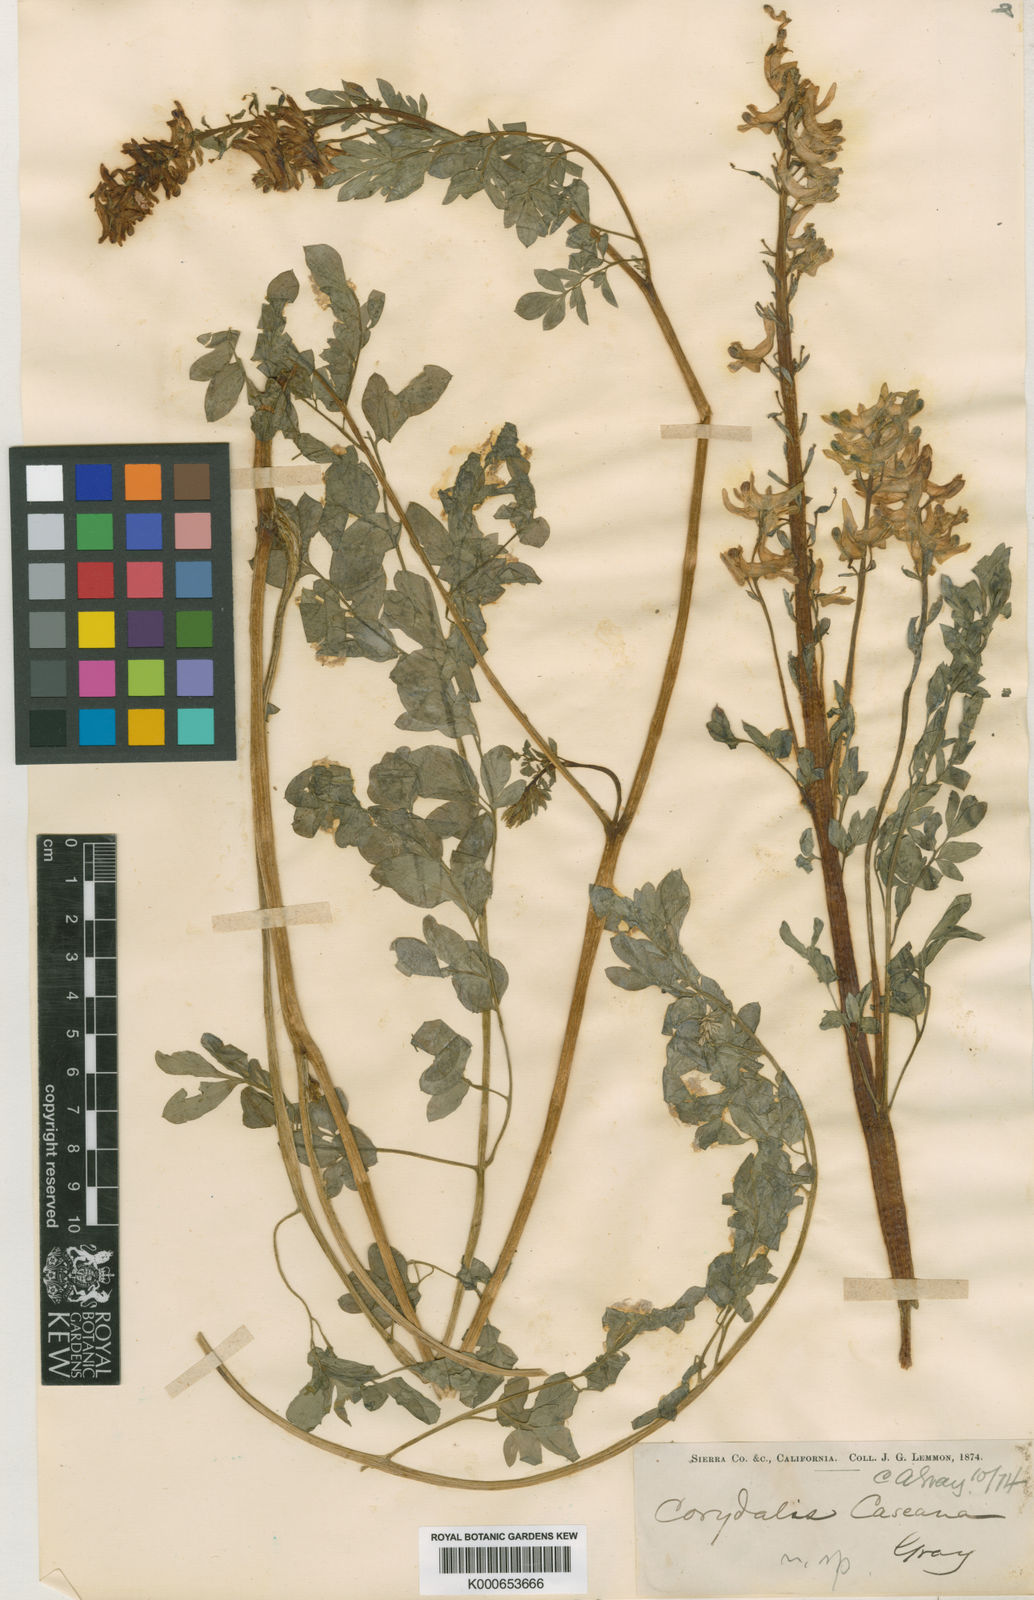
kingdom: Plantae
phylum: Tracheophyta
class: Magnoliopsida
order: Ranunculales
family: Papaveraceae
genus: Corydalis
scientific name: Corydalis caseana
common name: Fitweed
